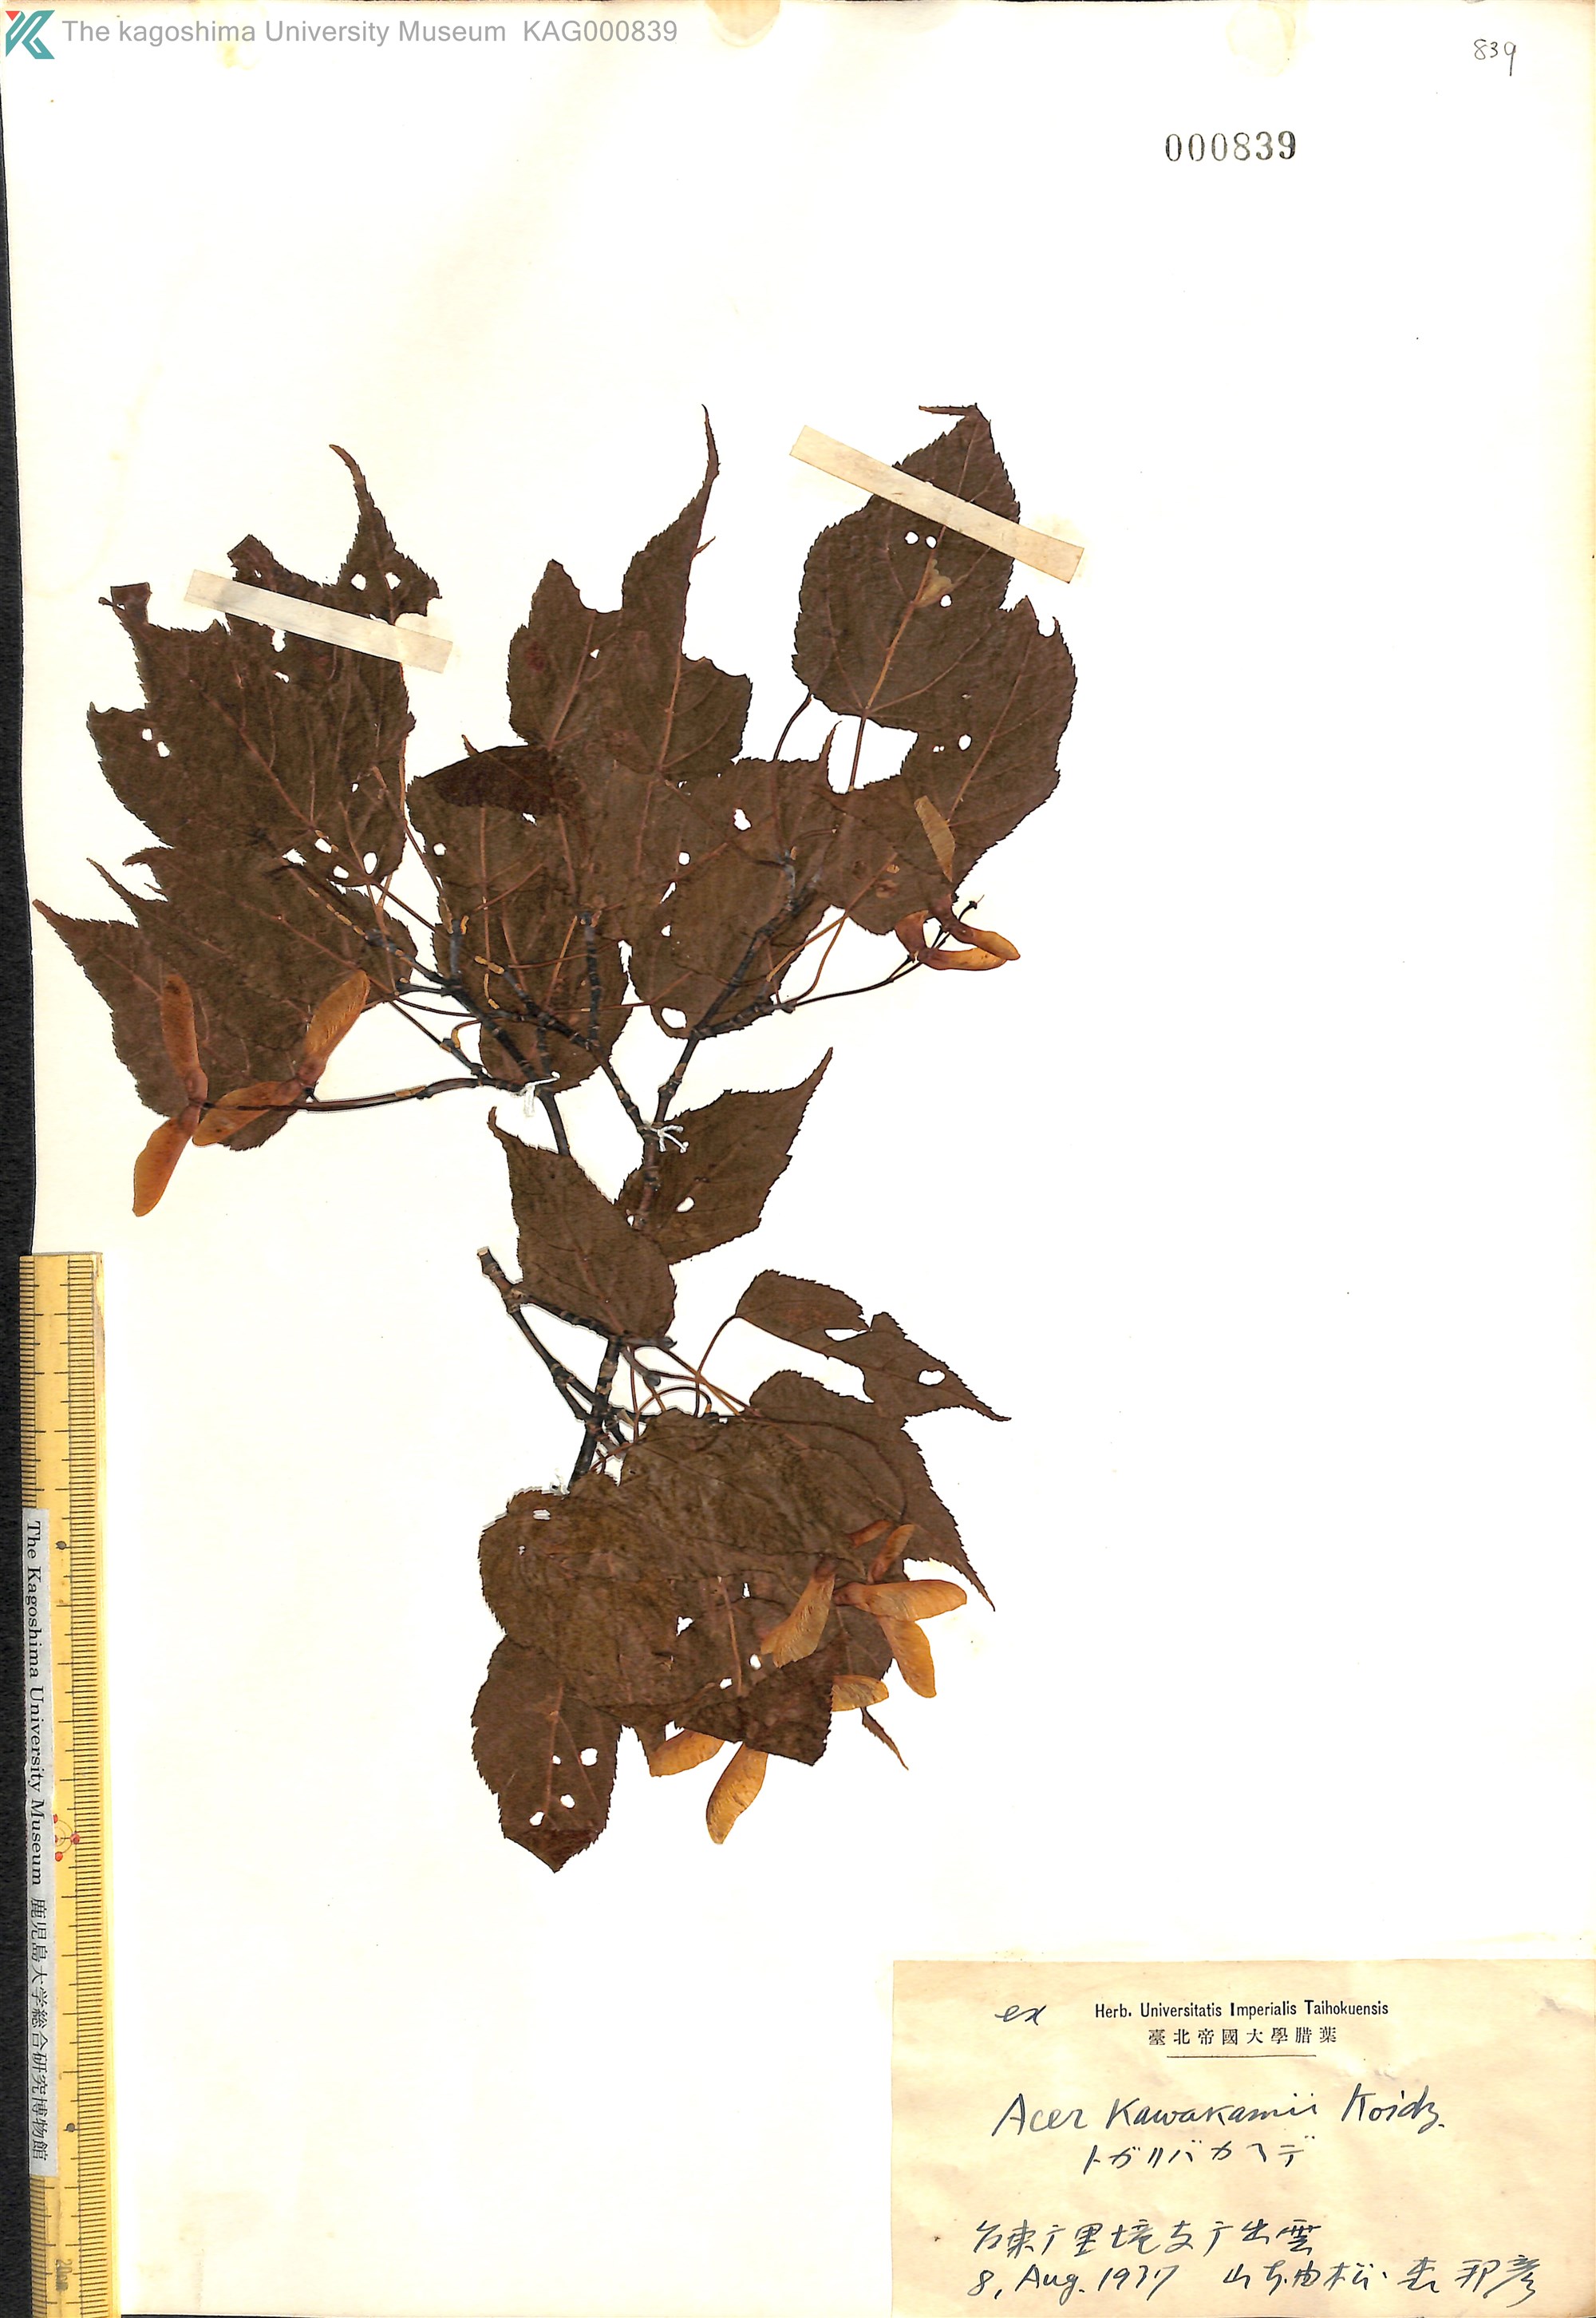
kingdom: Plantae
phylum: Tracheophyta
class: Magnoliopsida
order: Sapindales
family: Sapindaceae
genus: Acer
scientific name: Acer caudatifolium
